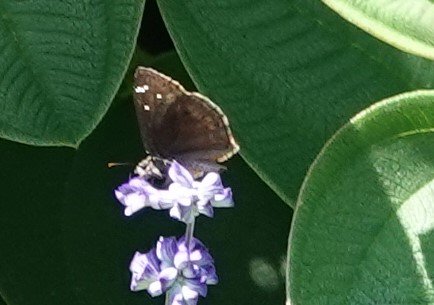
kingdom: Animalia
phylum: Arthropoda
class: Insecta
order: Lepidoptera
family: Hesperiidae
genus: Gesta
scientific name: Gesta
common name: Horace's Duskywing
